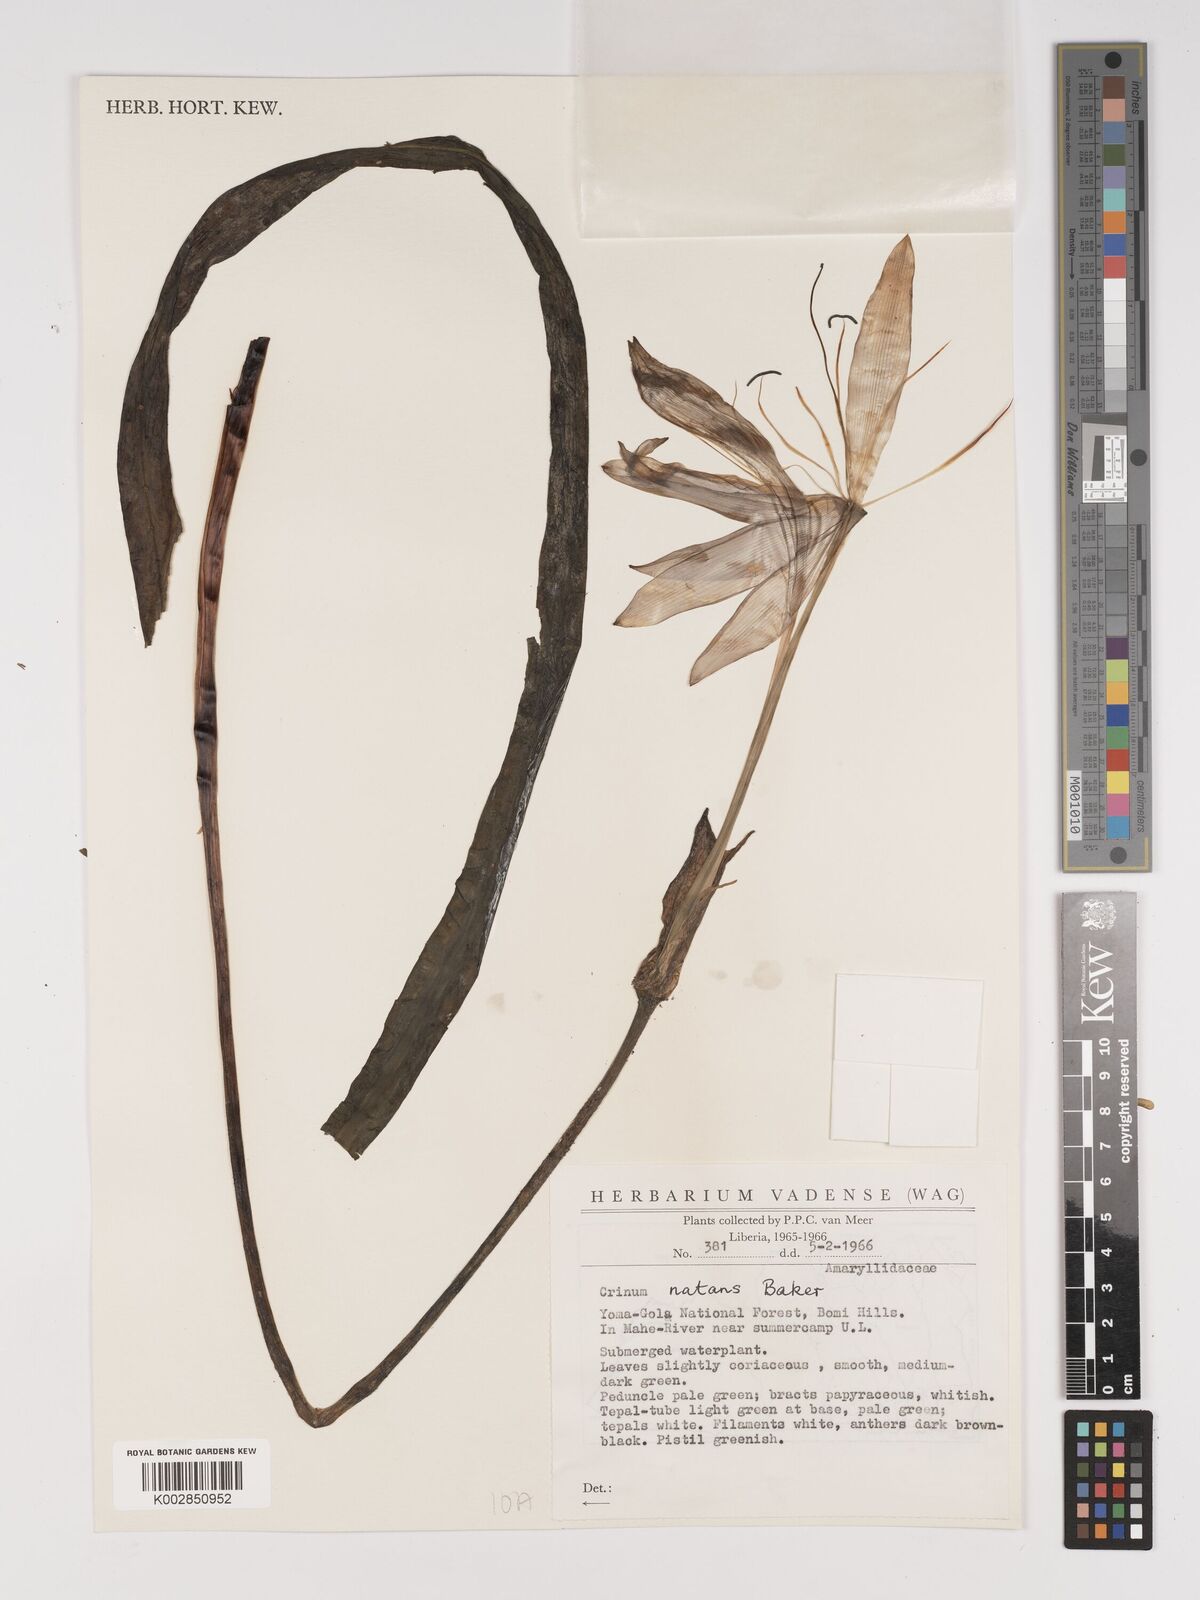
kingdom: Plantae
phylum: Tracheophyta
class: Liliopsida
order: Asparagales
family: Amaryllidaceae
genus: Crinum
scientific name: Crinum natans
